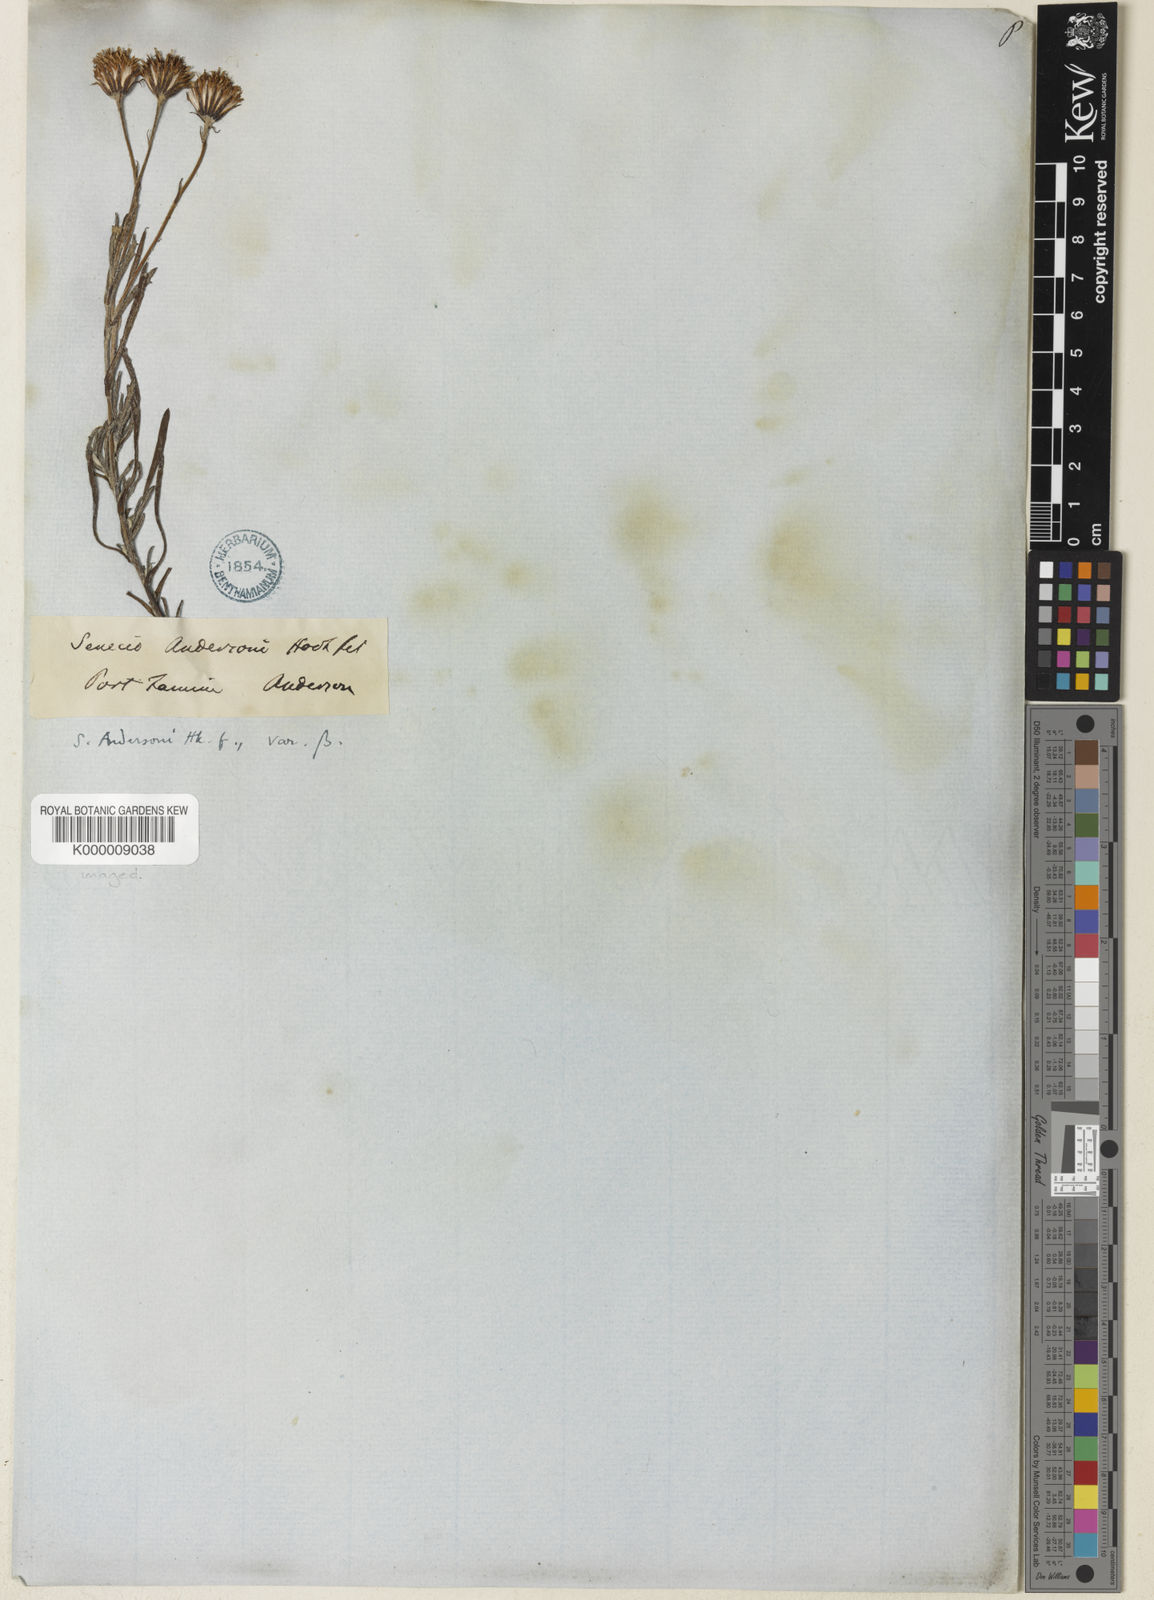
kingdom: Plantae
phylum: Tracheophyta
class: Magnoliopsida
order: Asterales
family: Asteraceae
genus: Senecio
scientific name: Senecio patagonicus
